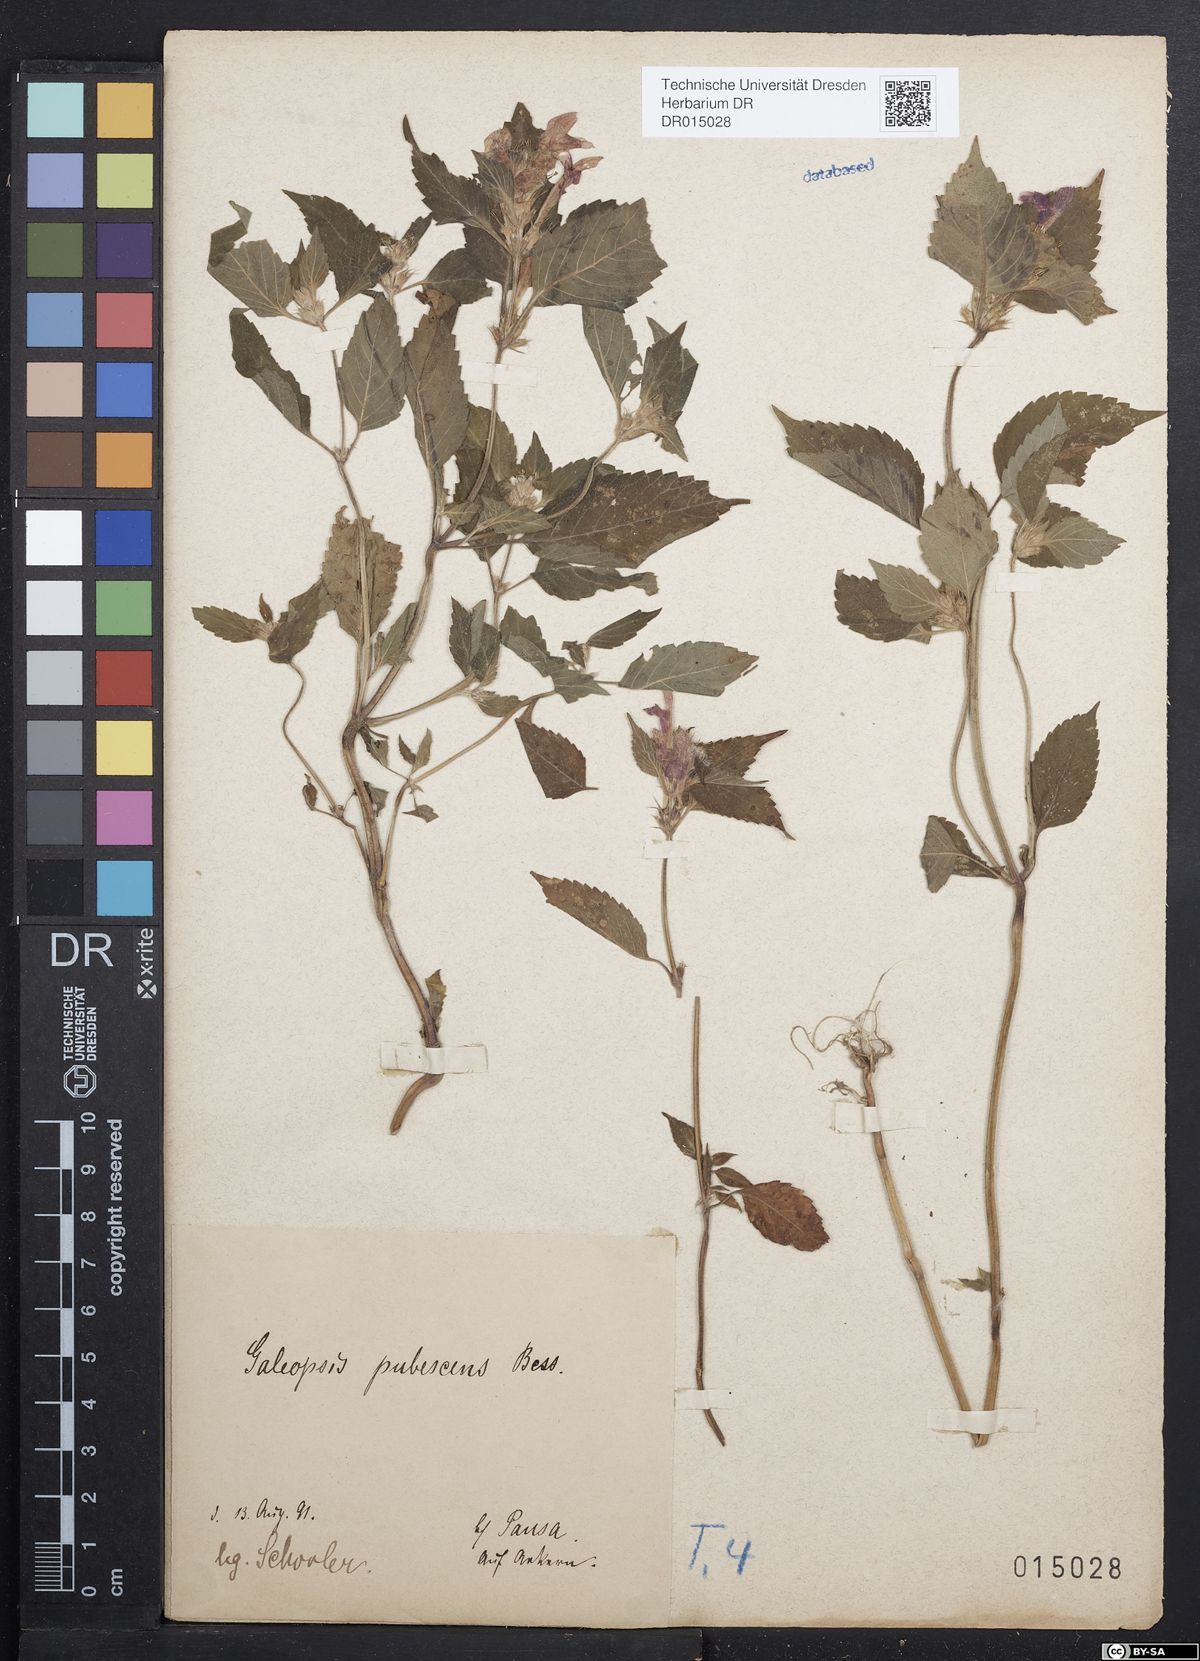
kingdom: Plantae
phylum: Tracheophyta
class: Magnoliopsida
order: Lamiales
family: Lamiaceae
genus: Galeopsis
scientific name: Galeopsis pubescens
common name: Downy hemp-nettle
